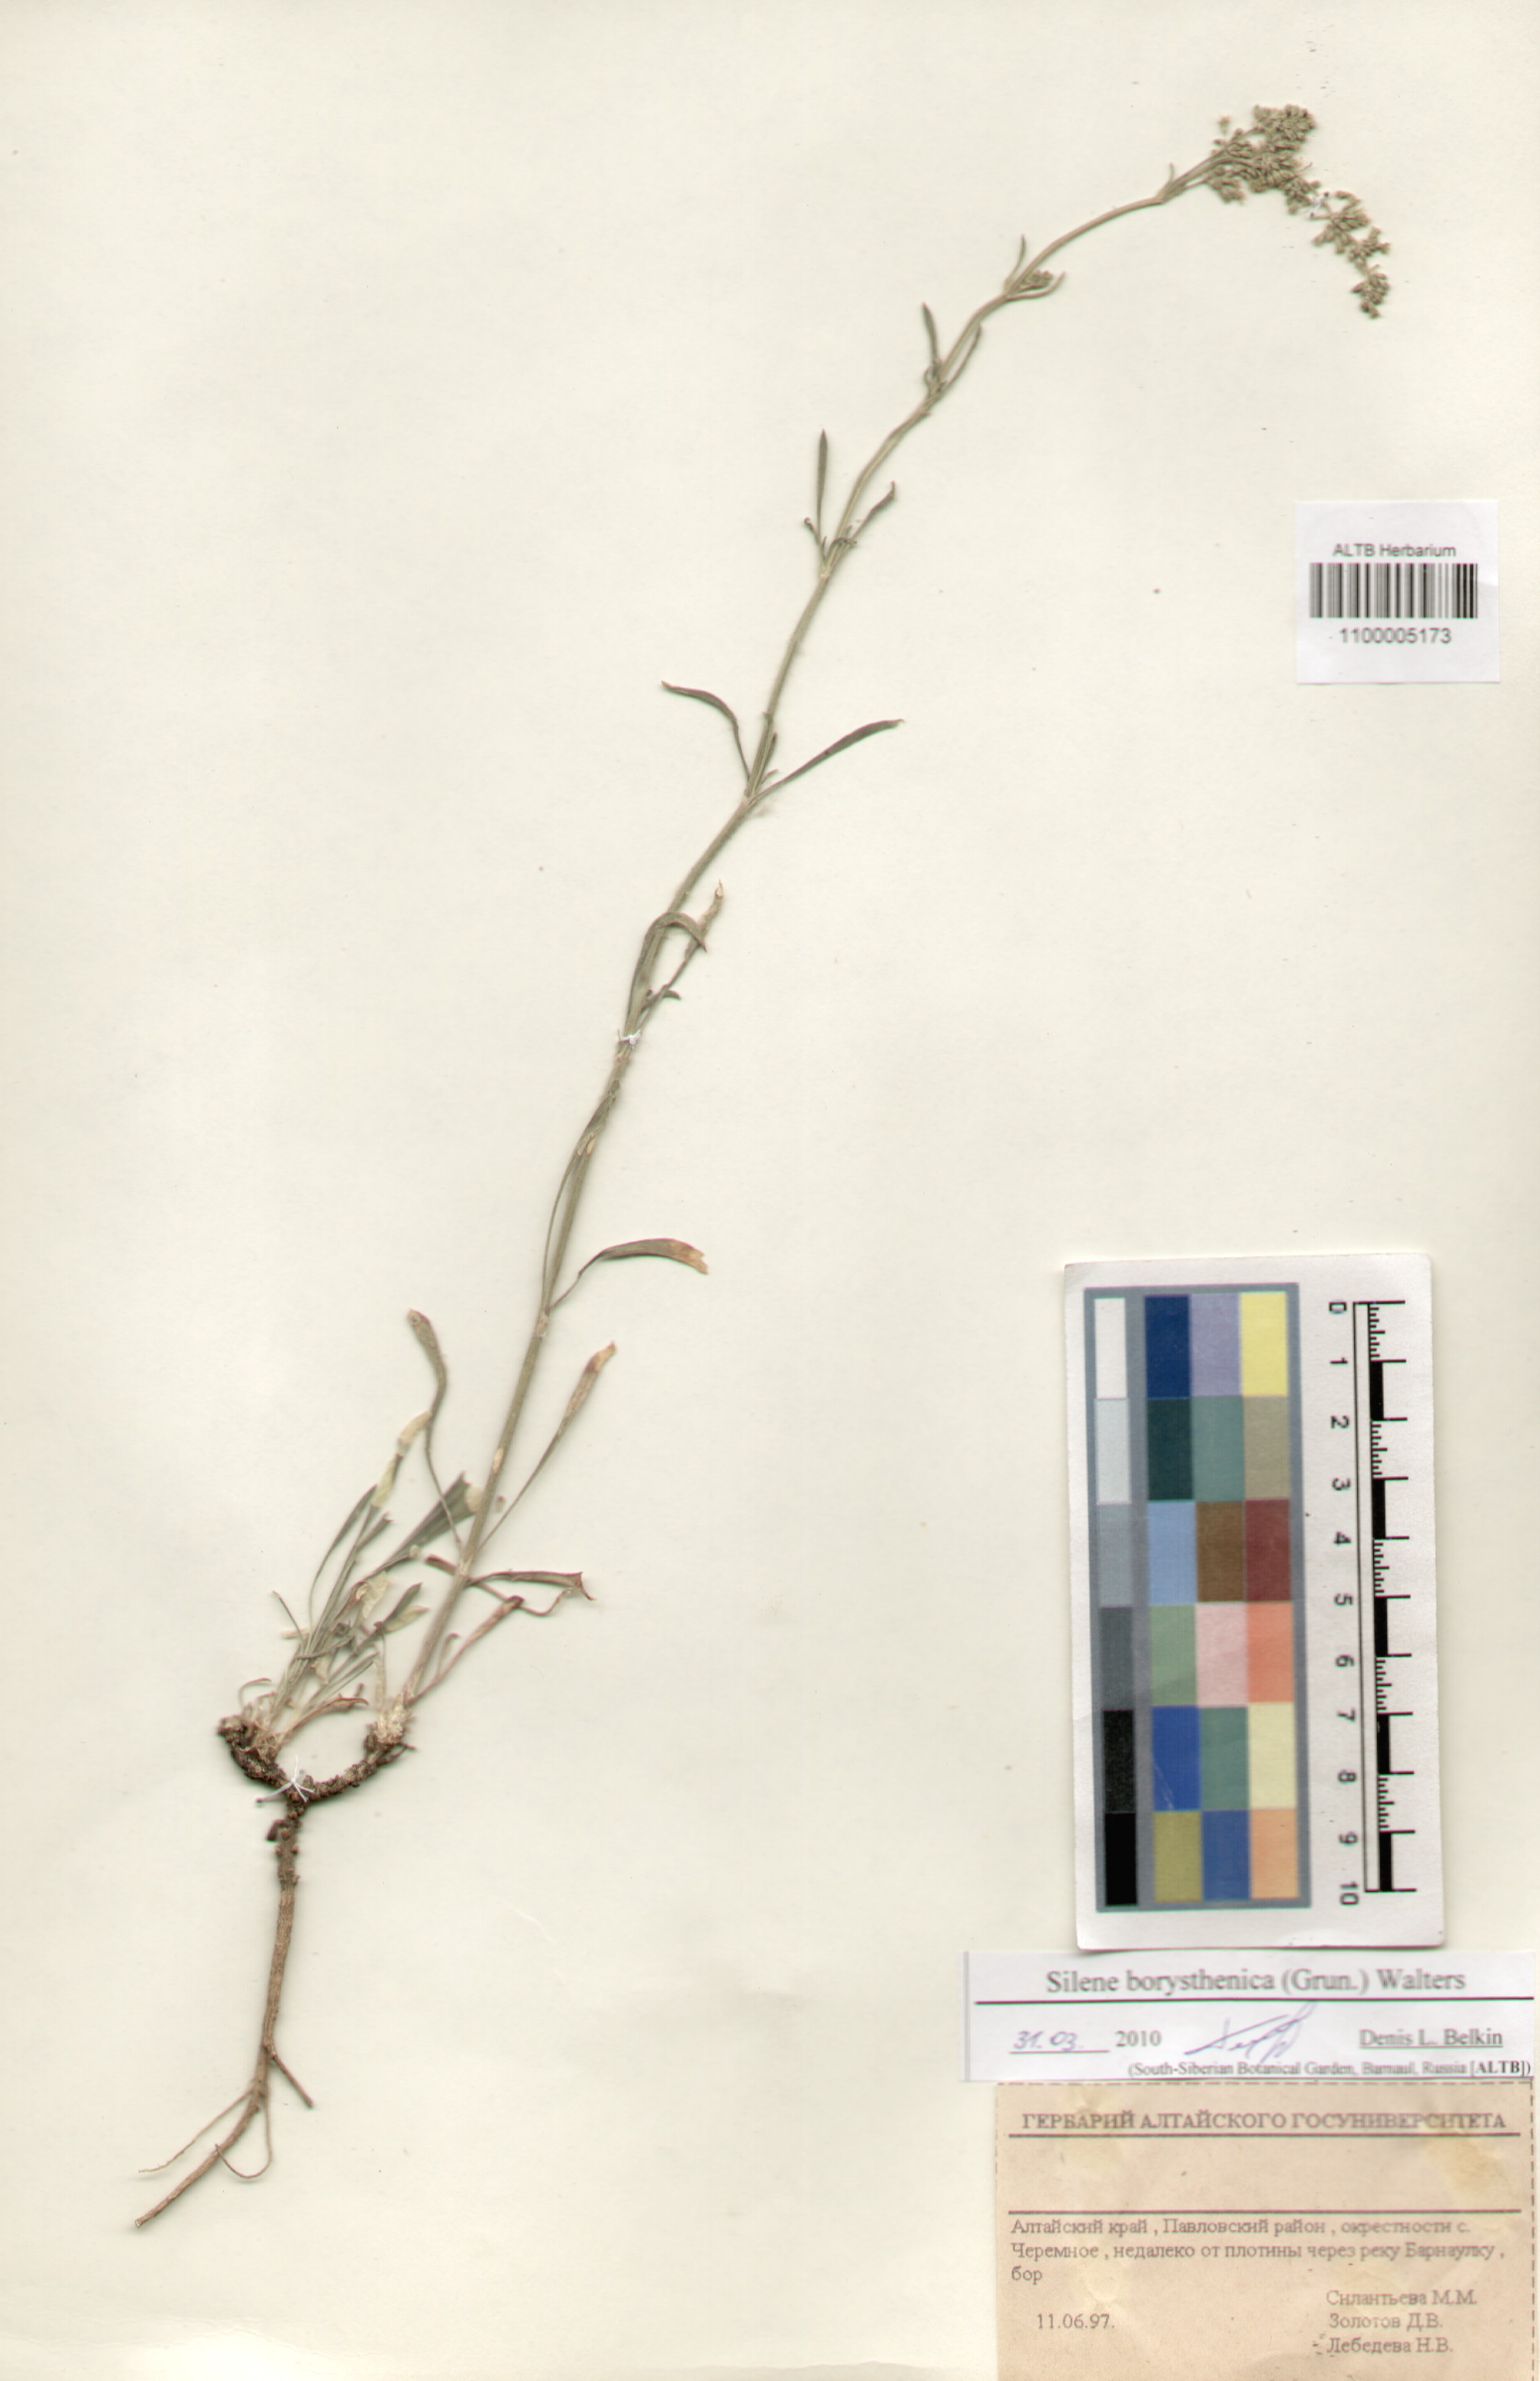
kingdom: Plantae
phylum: Tracheophyta
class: Magnoliopsida
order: Caryophyllales
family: Caryophyllaceae
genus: Silene
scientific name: Silene borysthenica
